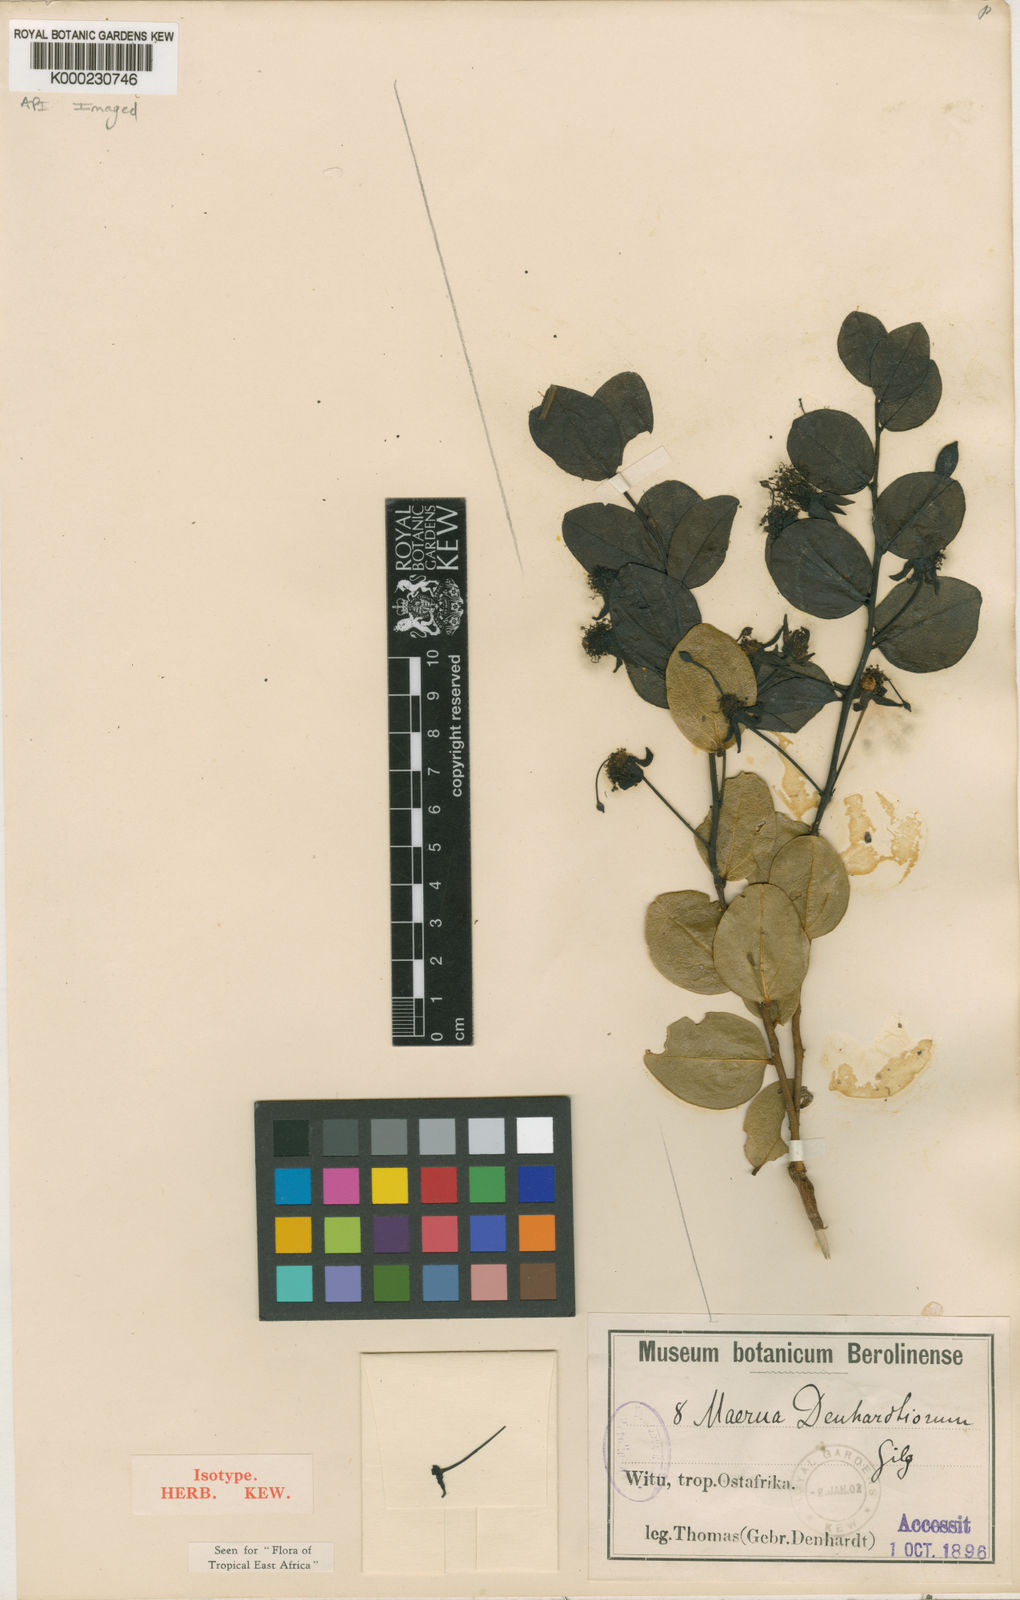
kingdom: Plantae
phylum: Tracheophyta
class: Magnoliopsida
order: Brassicales
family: Capparaceae
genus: Maerua
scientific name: Maerua denhardtiorum
